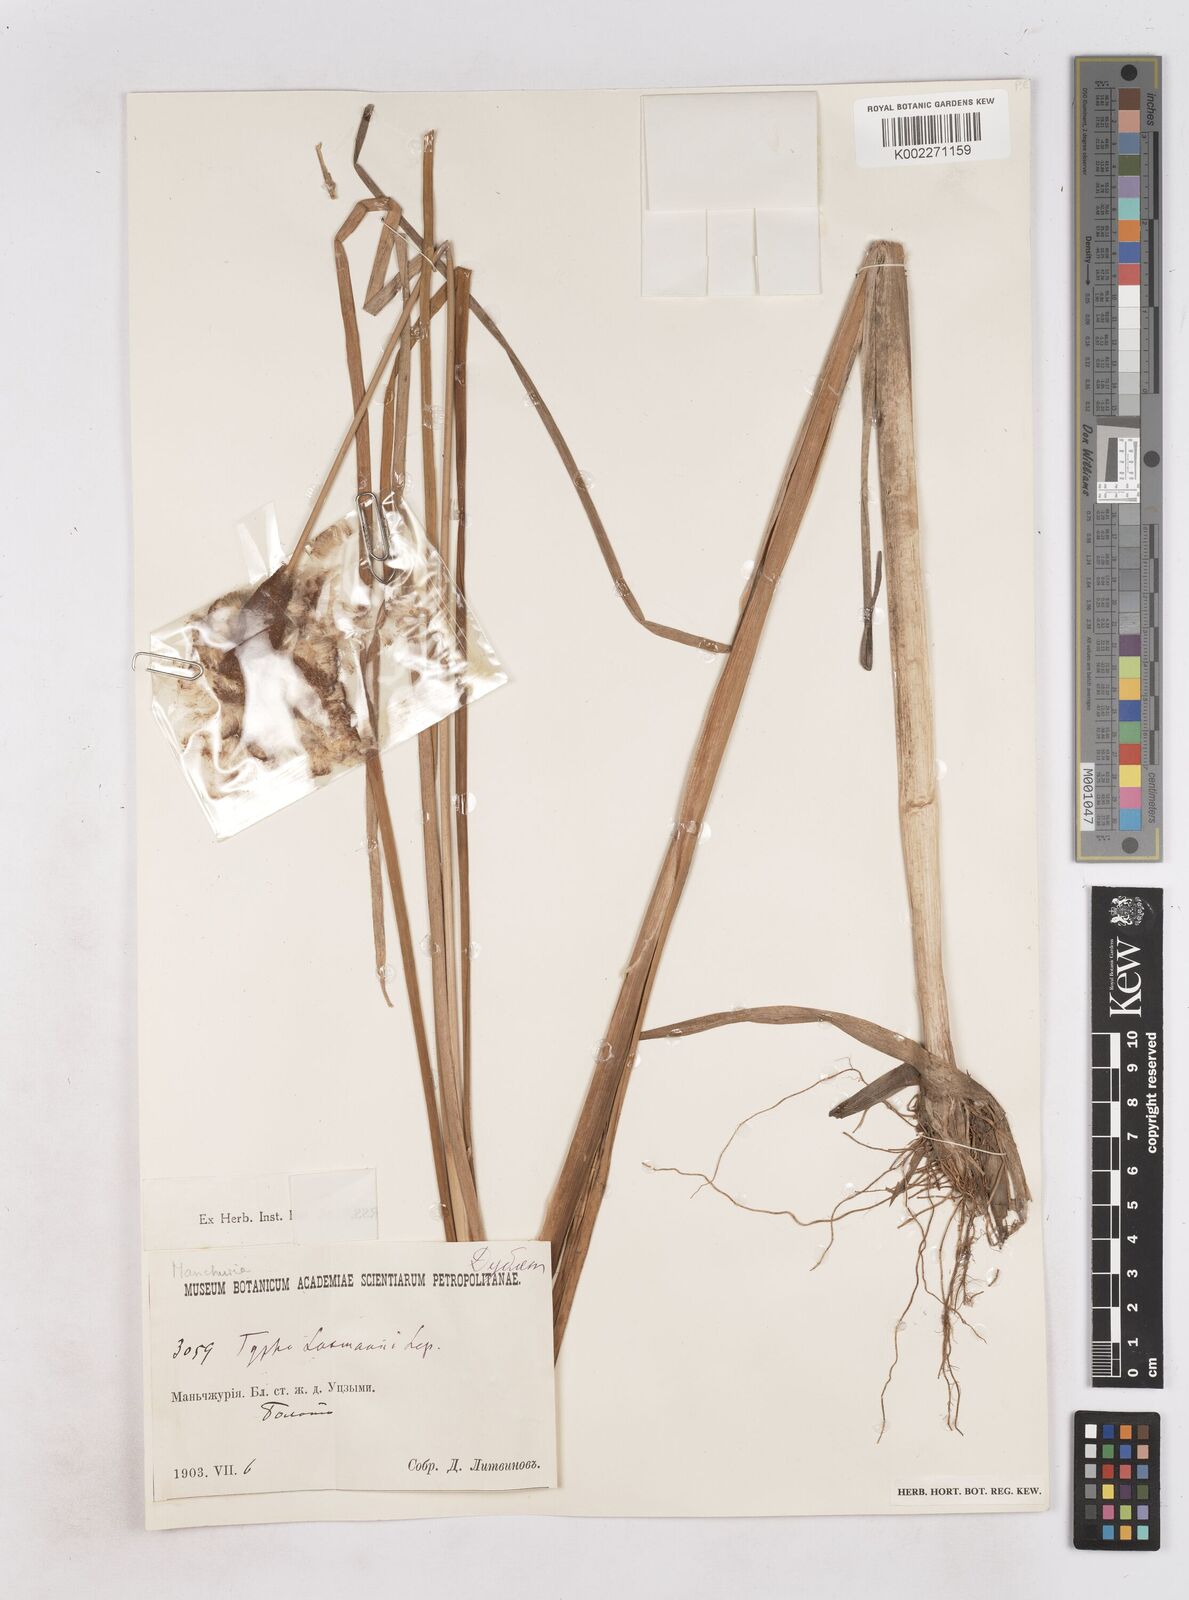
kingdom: Plantae
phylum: Tracheophyta
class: Liliopsida
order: Poales
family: Typhaceae
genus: Typha
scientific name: Typha laxmannii
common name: Laxman’s bulrush
